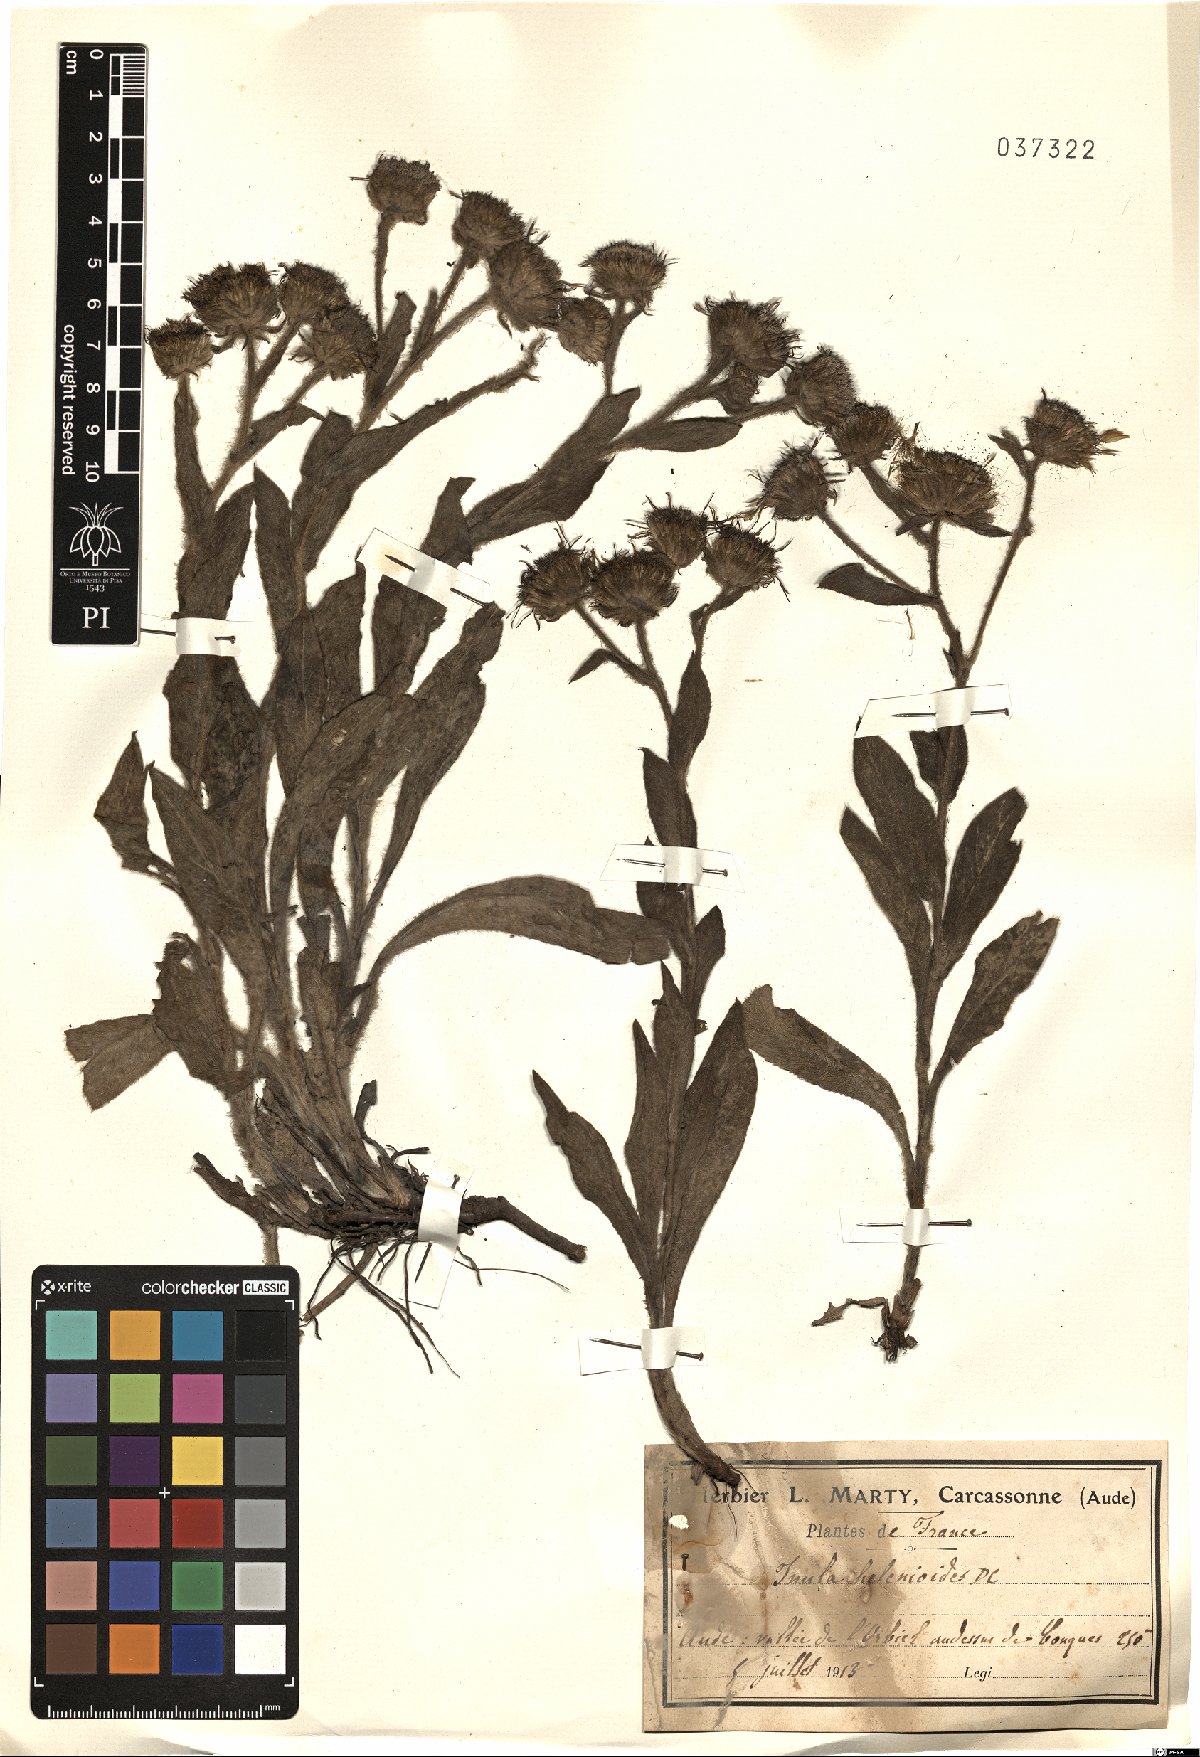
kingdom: Plantae
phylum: Tracheophyta
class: Magnoliopsida
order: Asterales
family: Asteraceae
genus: Pentanema
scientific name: Pentanema helenioides
